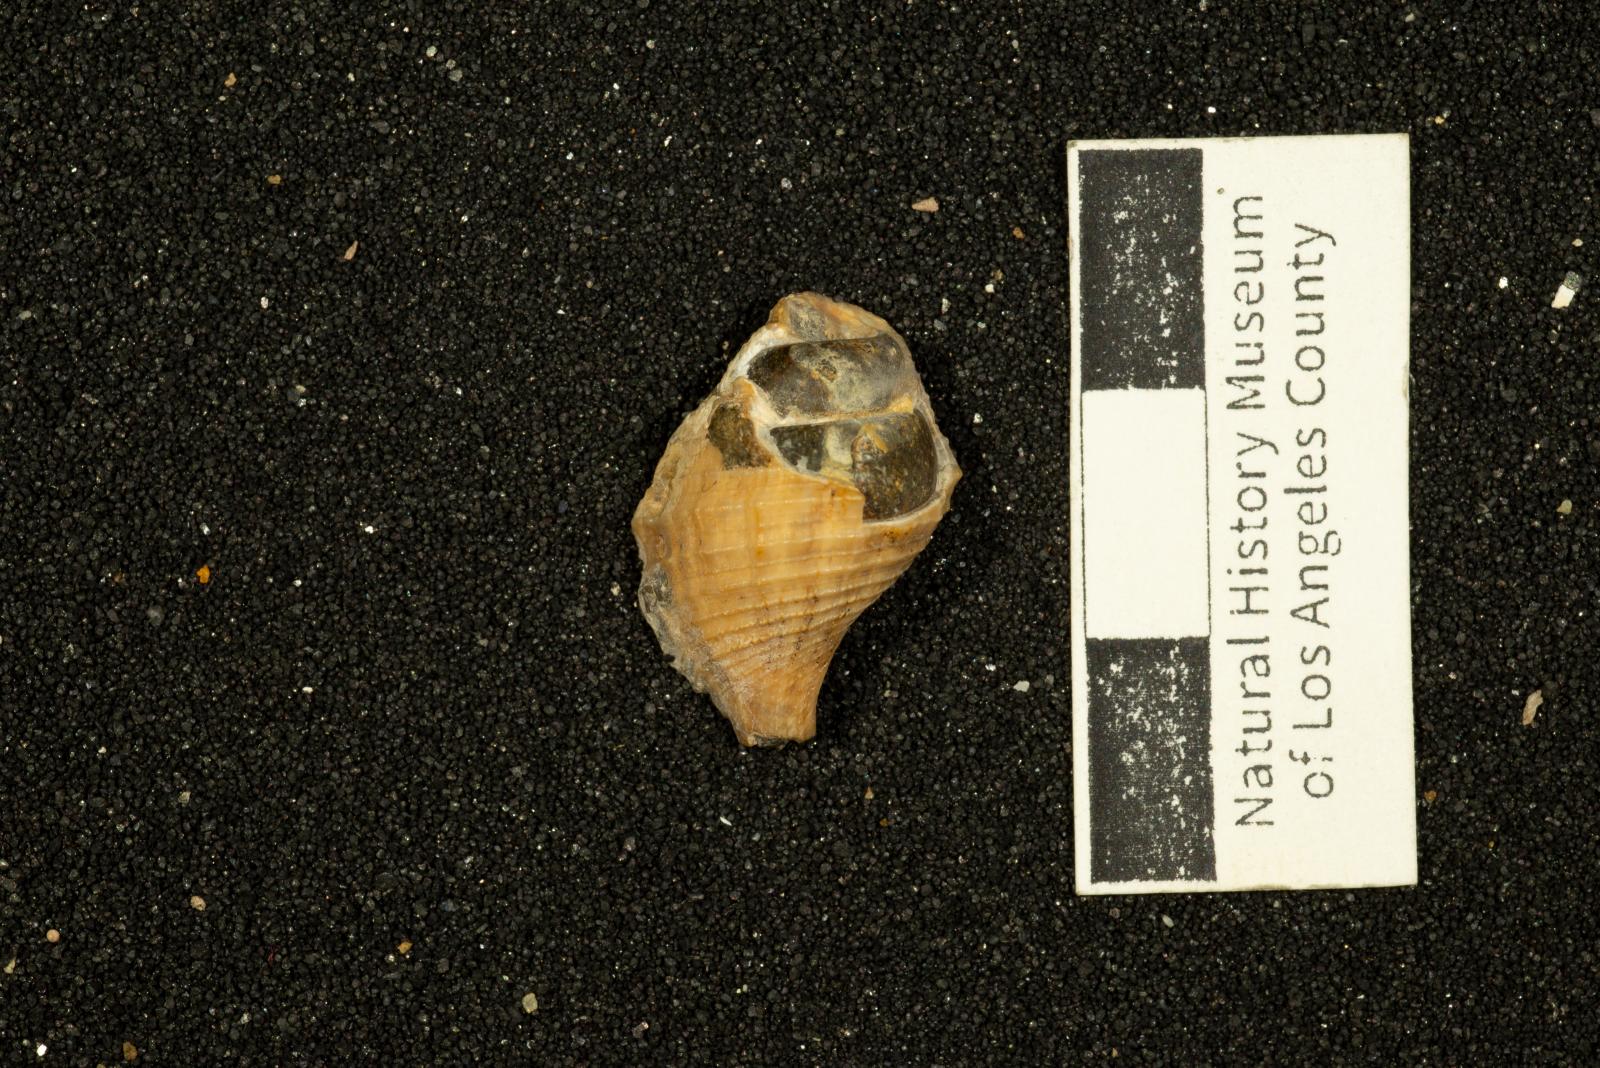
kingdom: Animalia
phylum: Mollusca
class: Gastropoda
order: Neogastropoda
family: Perissityidae
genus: Murphitys
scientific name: Murphitys michaeli
